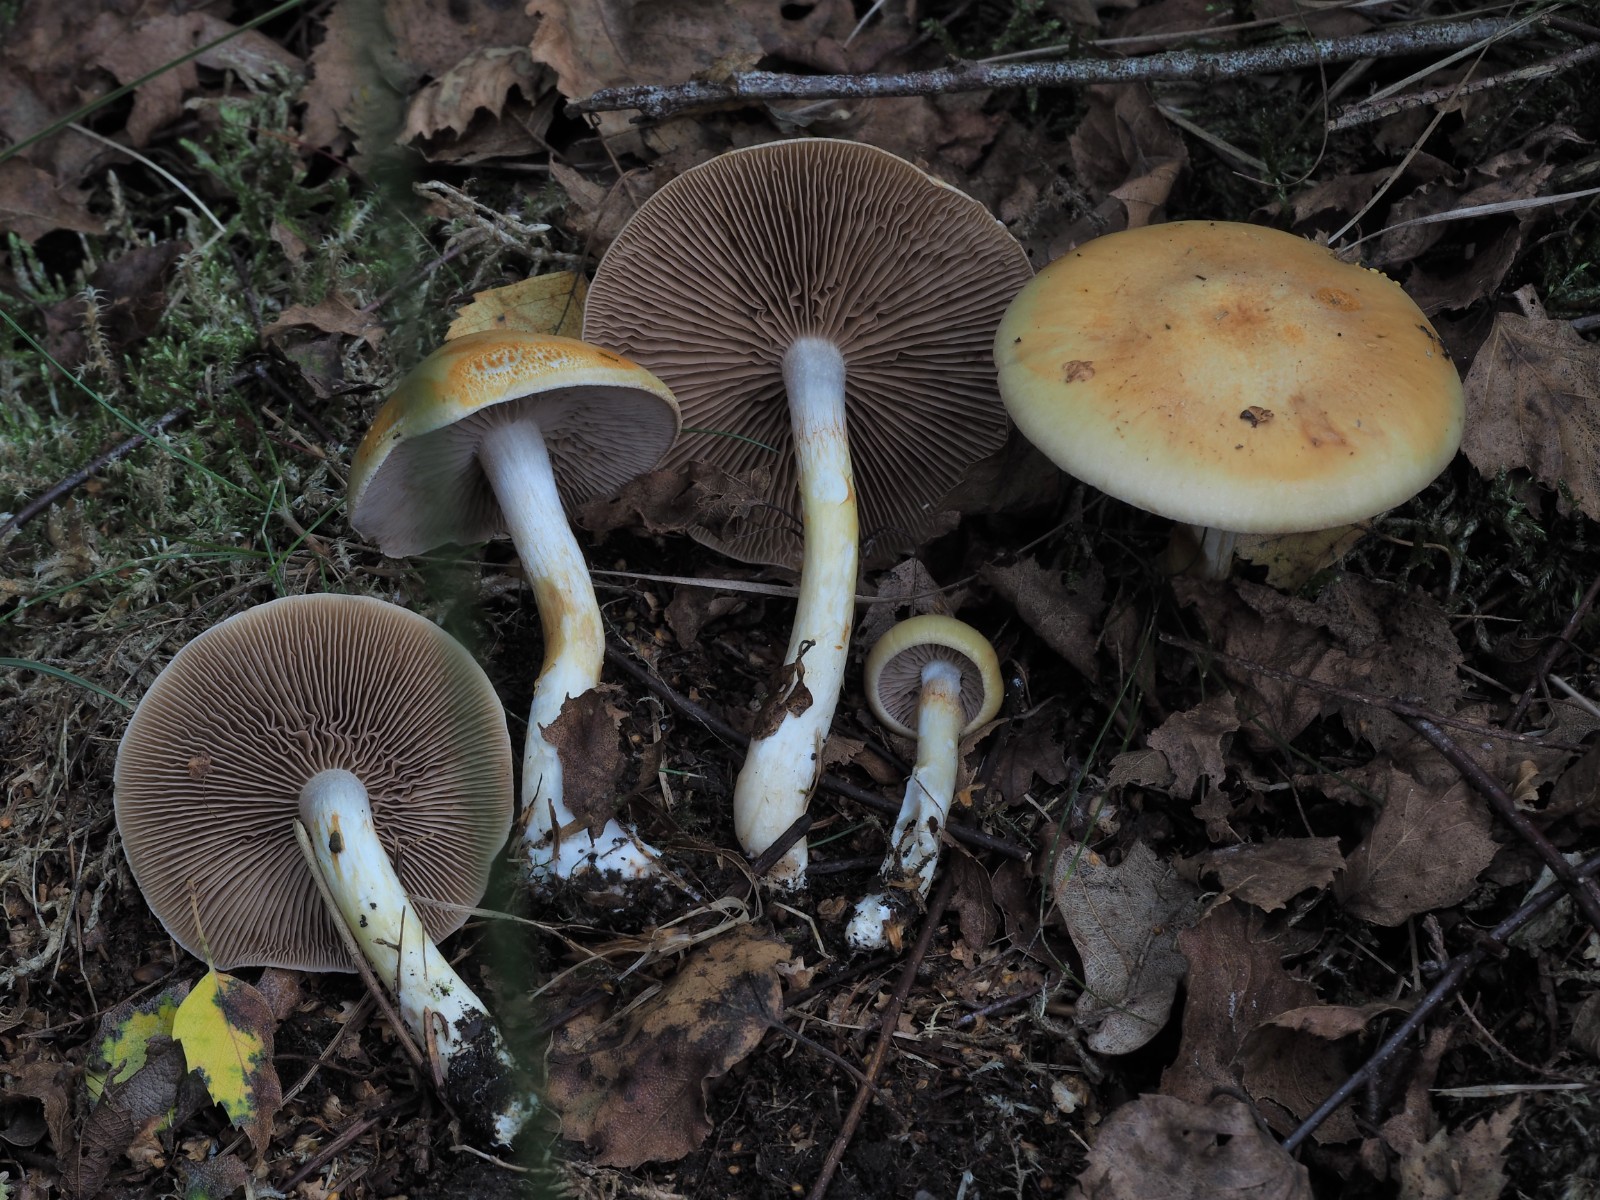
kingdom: Fungi
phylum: Basidiomycota
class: Agaricomycetes
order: Agaricales
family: Cortinariaceae
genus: Cortinarius
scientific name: Cortinarius delibutus
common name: gul slørhat
